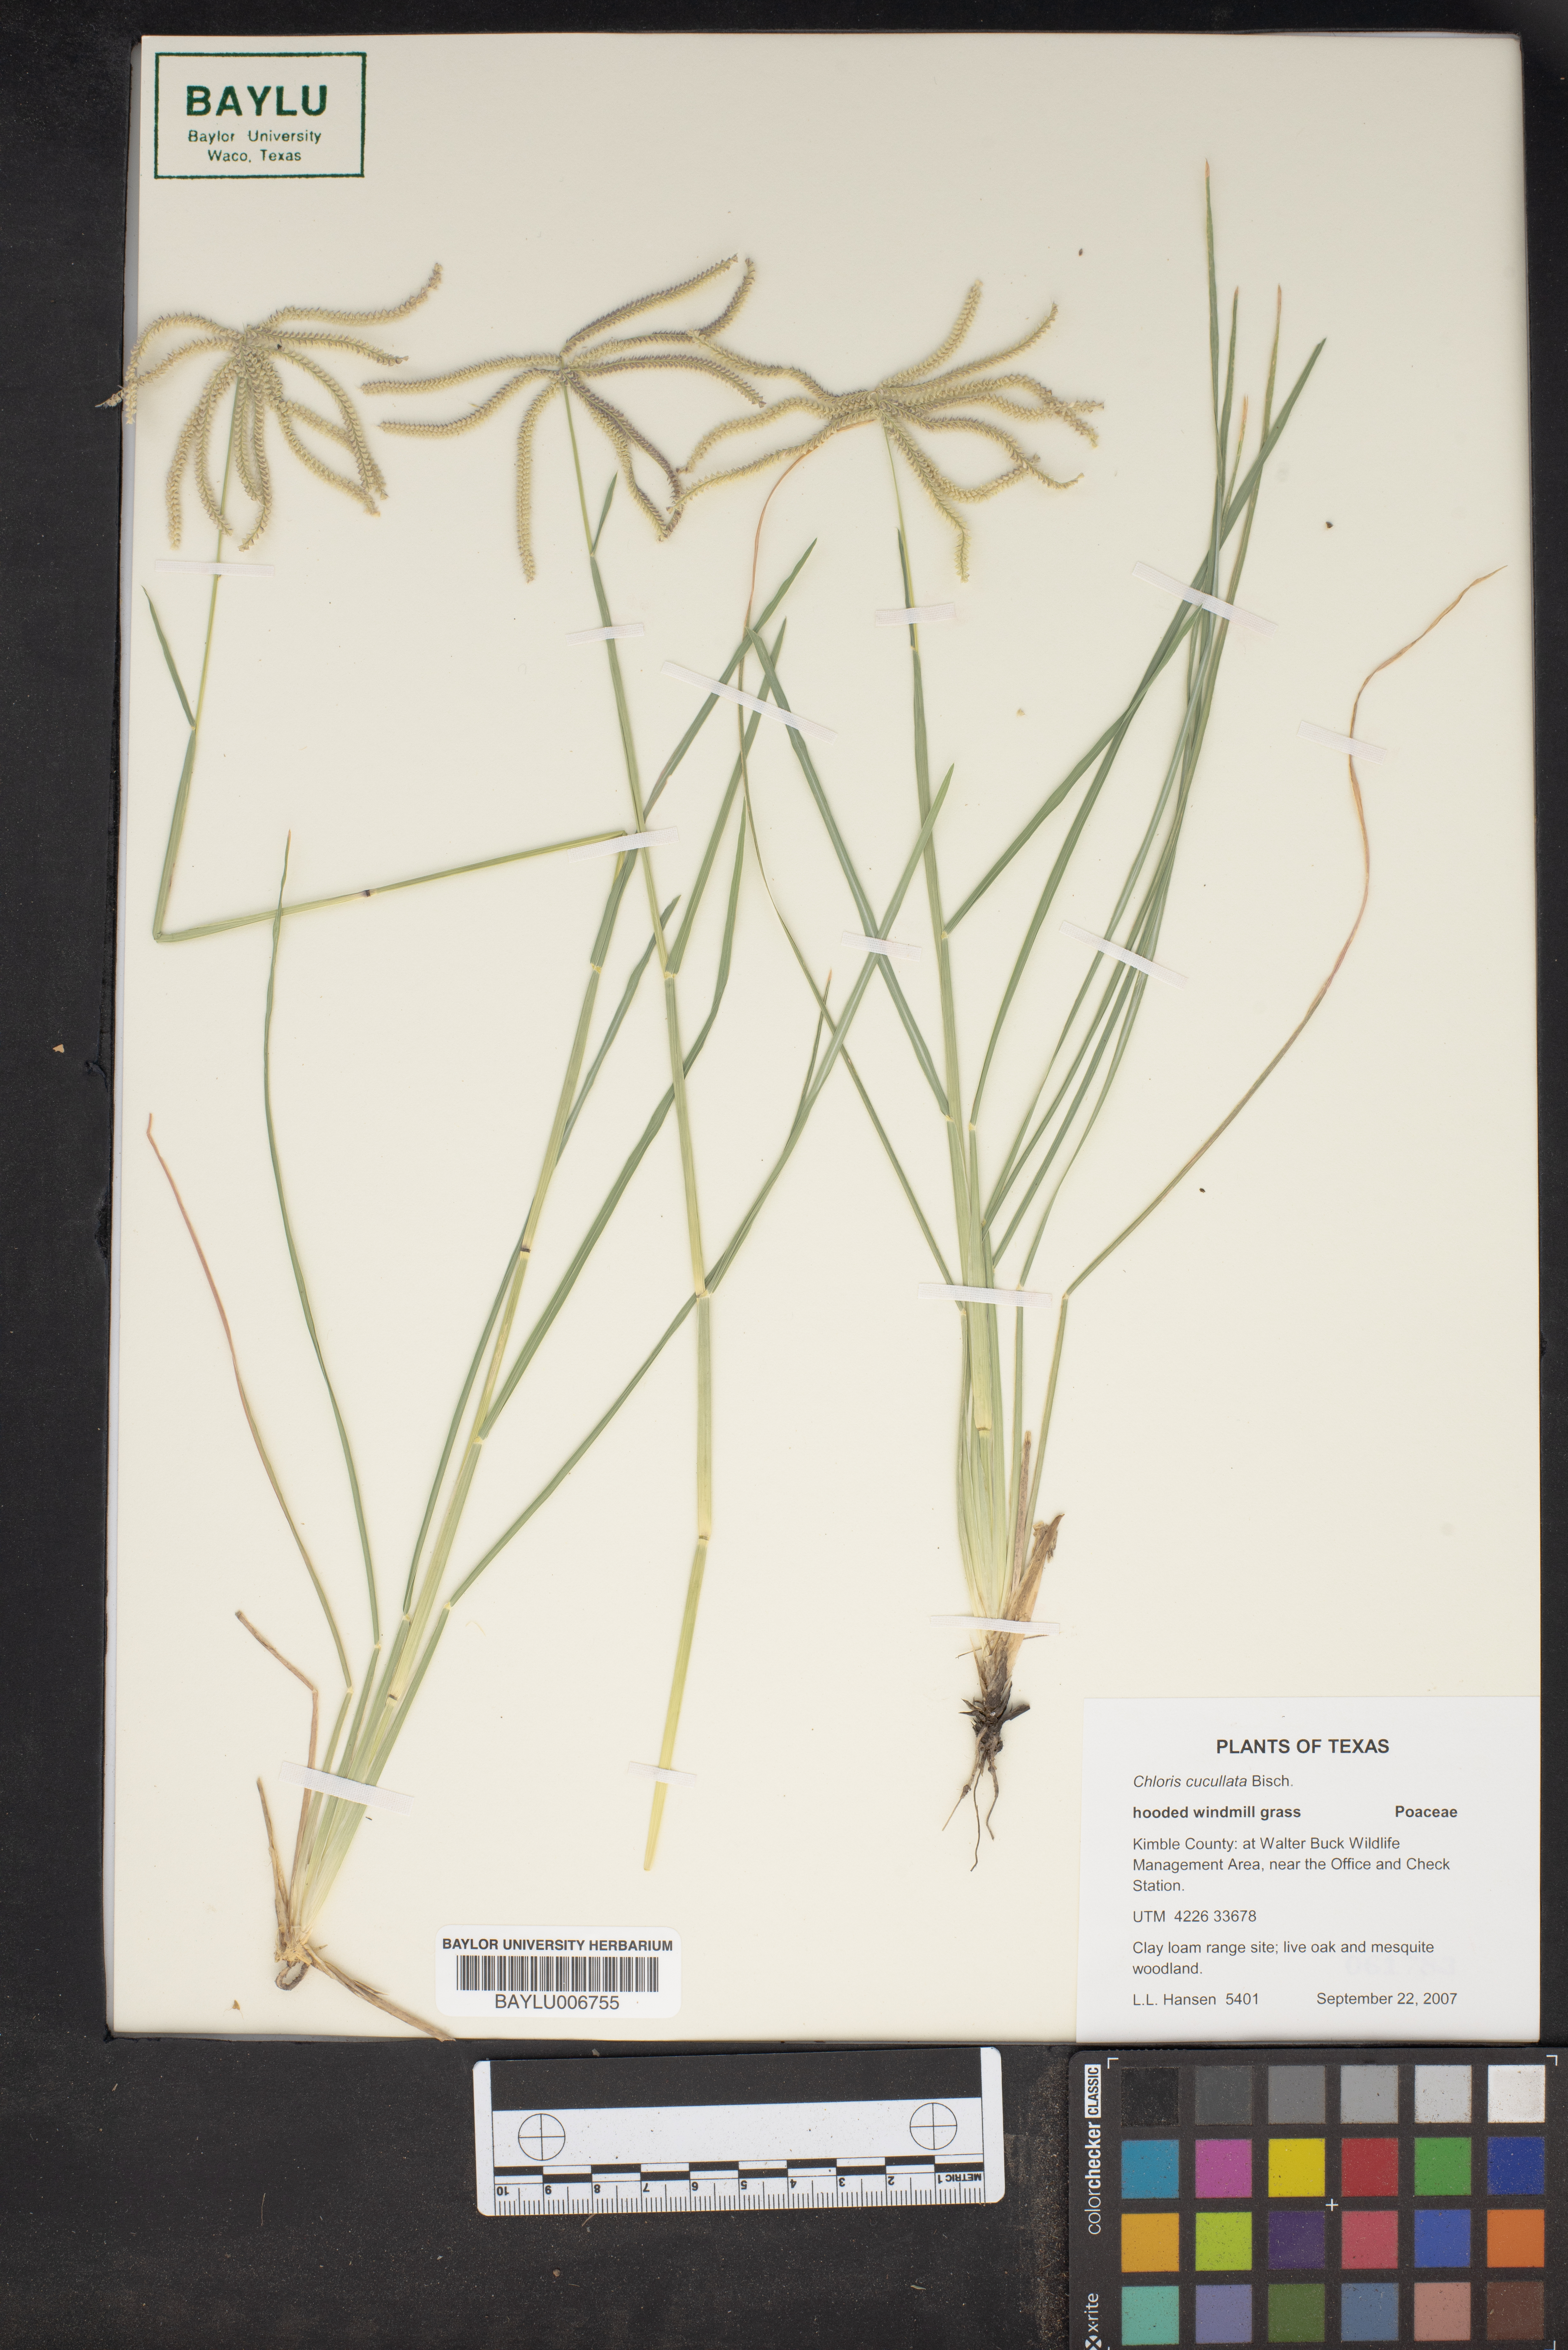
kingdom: Plantae
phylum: Tracheophyta
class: Liliopsida
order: Poales
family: Poaceae
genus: Chloris
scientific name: Chloris cucullata
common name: Hooded windmill grass
